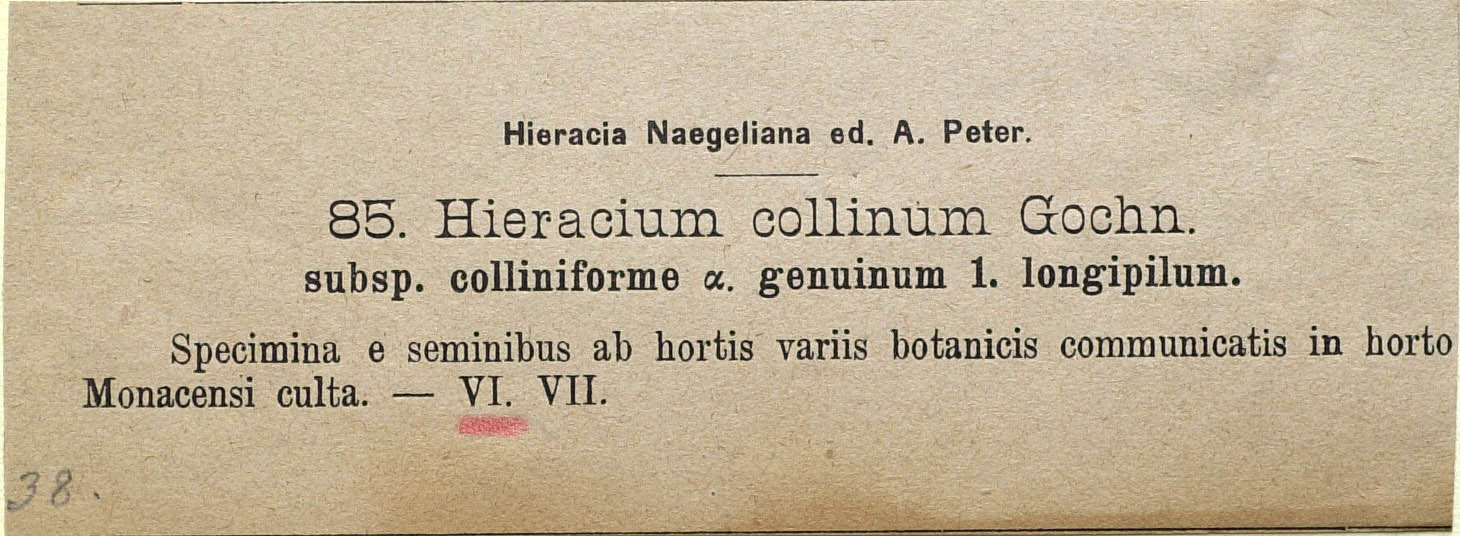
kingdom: Plantae
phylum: Tracheophyta
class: Magnoliopsida
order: Asterales
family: Asteraceae
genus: Pilosella
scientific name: Pilosella caespitosa
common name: Yellow fox-and-cubs
